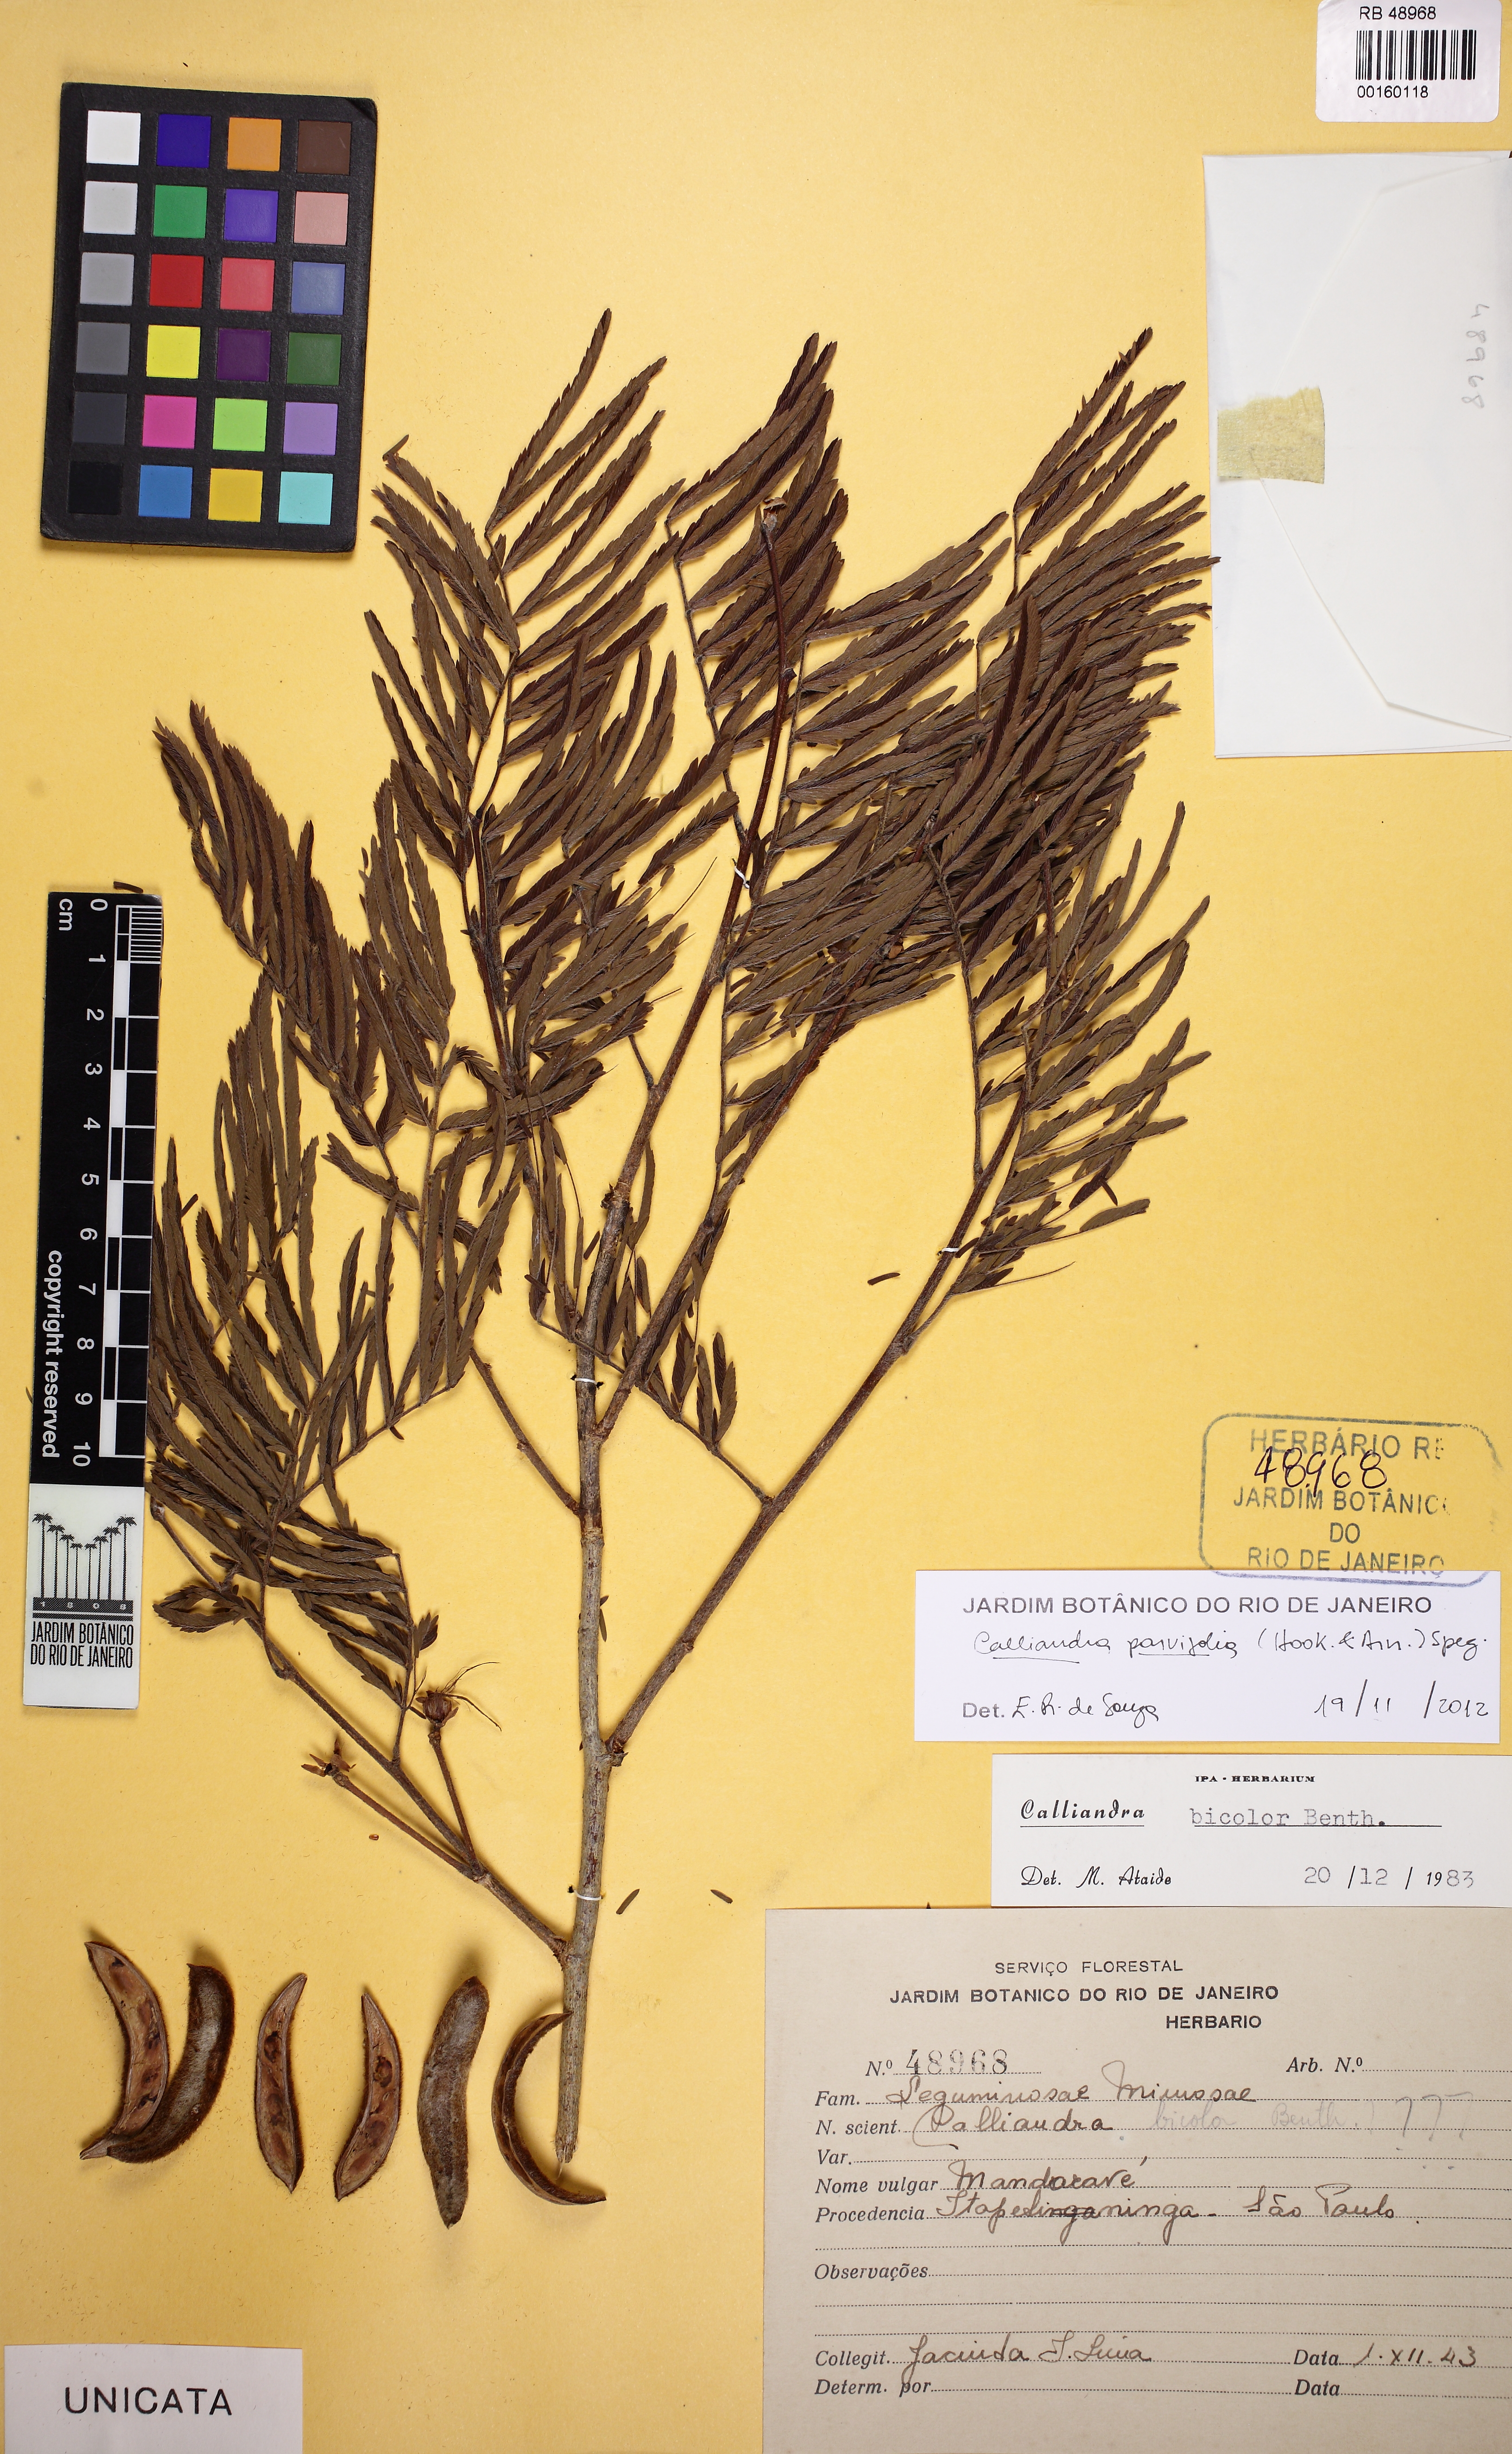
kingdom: Plantae
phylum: Tracheophyta
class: Magnoliopsida
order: Fabales
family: Fabaceae
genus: Calliandra
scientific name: Calliandra parviflora
